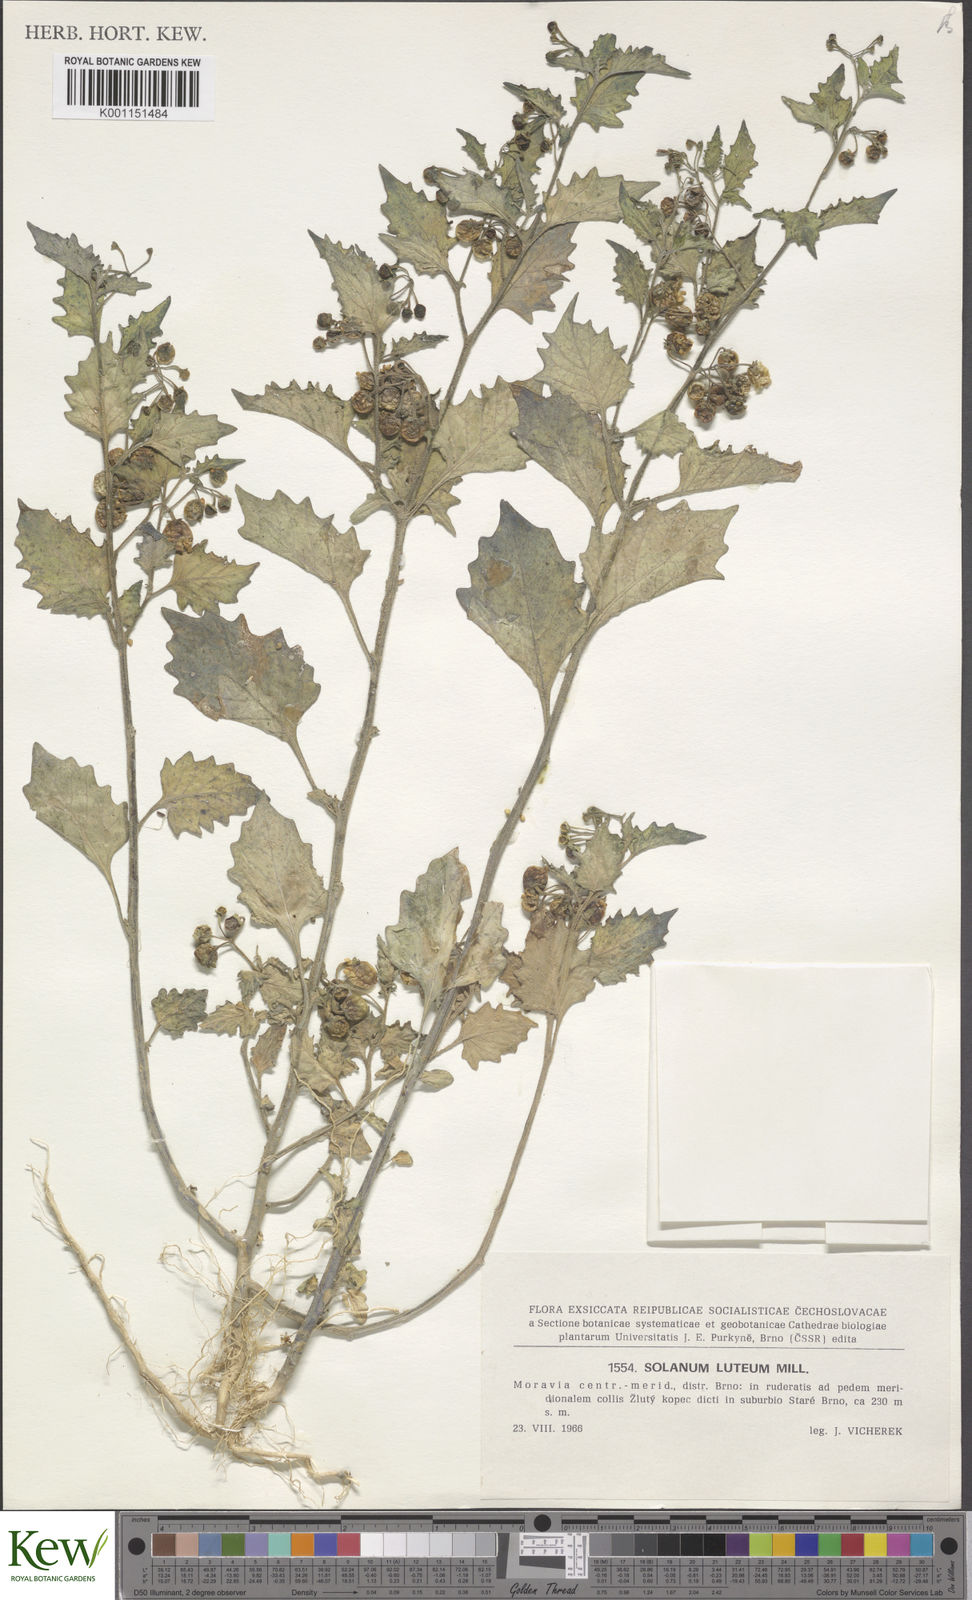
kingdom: Plantae
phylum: Tracheophyta
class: Magnoliopsida
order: Solanales
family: Solanaceae
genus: Solanum
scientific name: Solanum villosum
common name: Red nightshade
